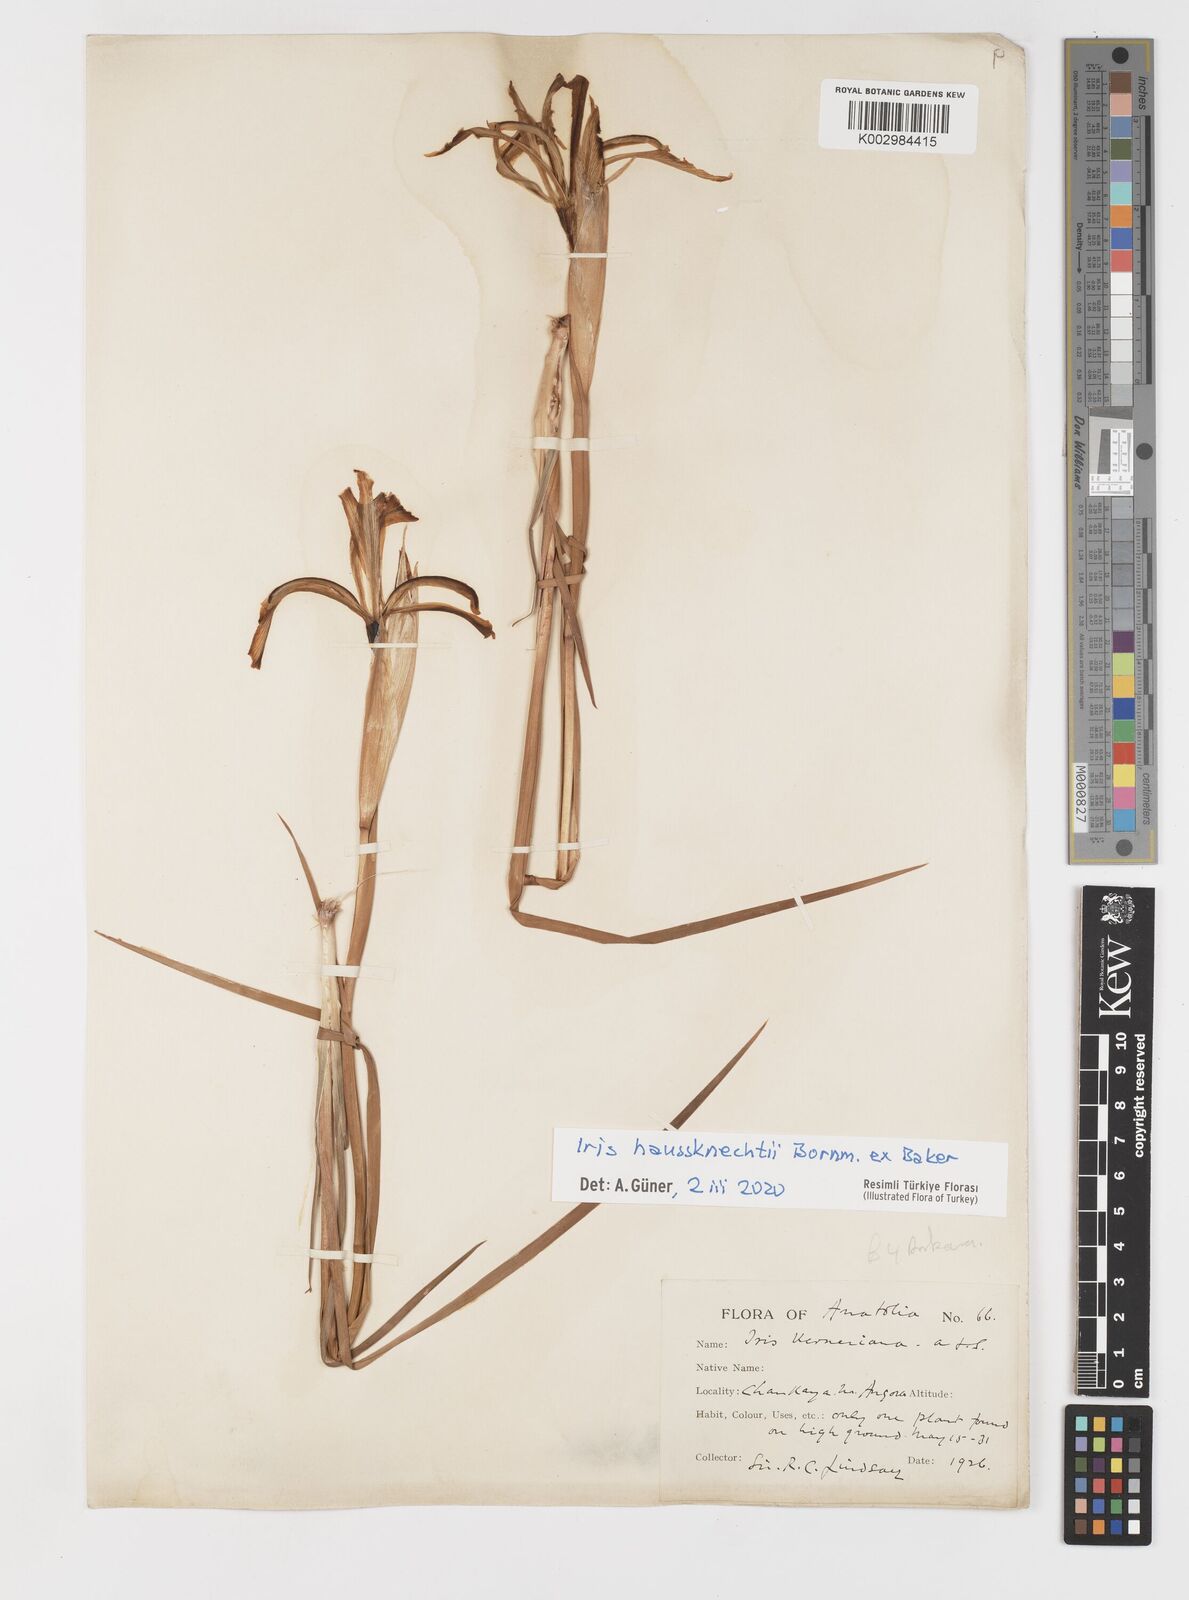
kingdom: Plantae
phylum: Tracheophyta
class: Liliopsida
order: Asparagales
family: Iridaceae
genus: Iris
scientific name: Iris haussknechtii
